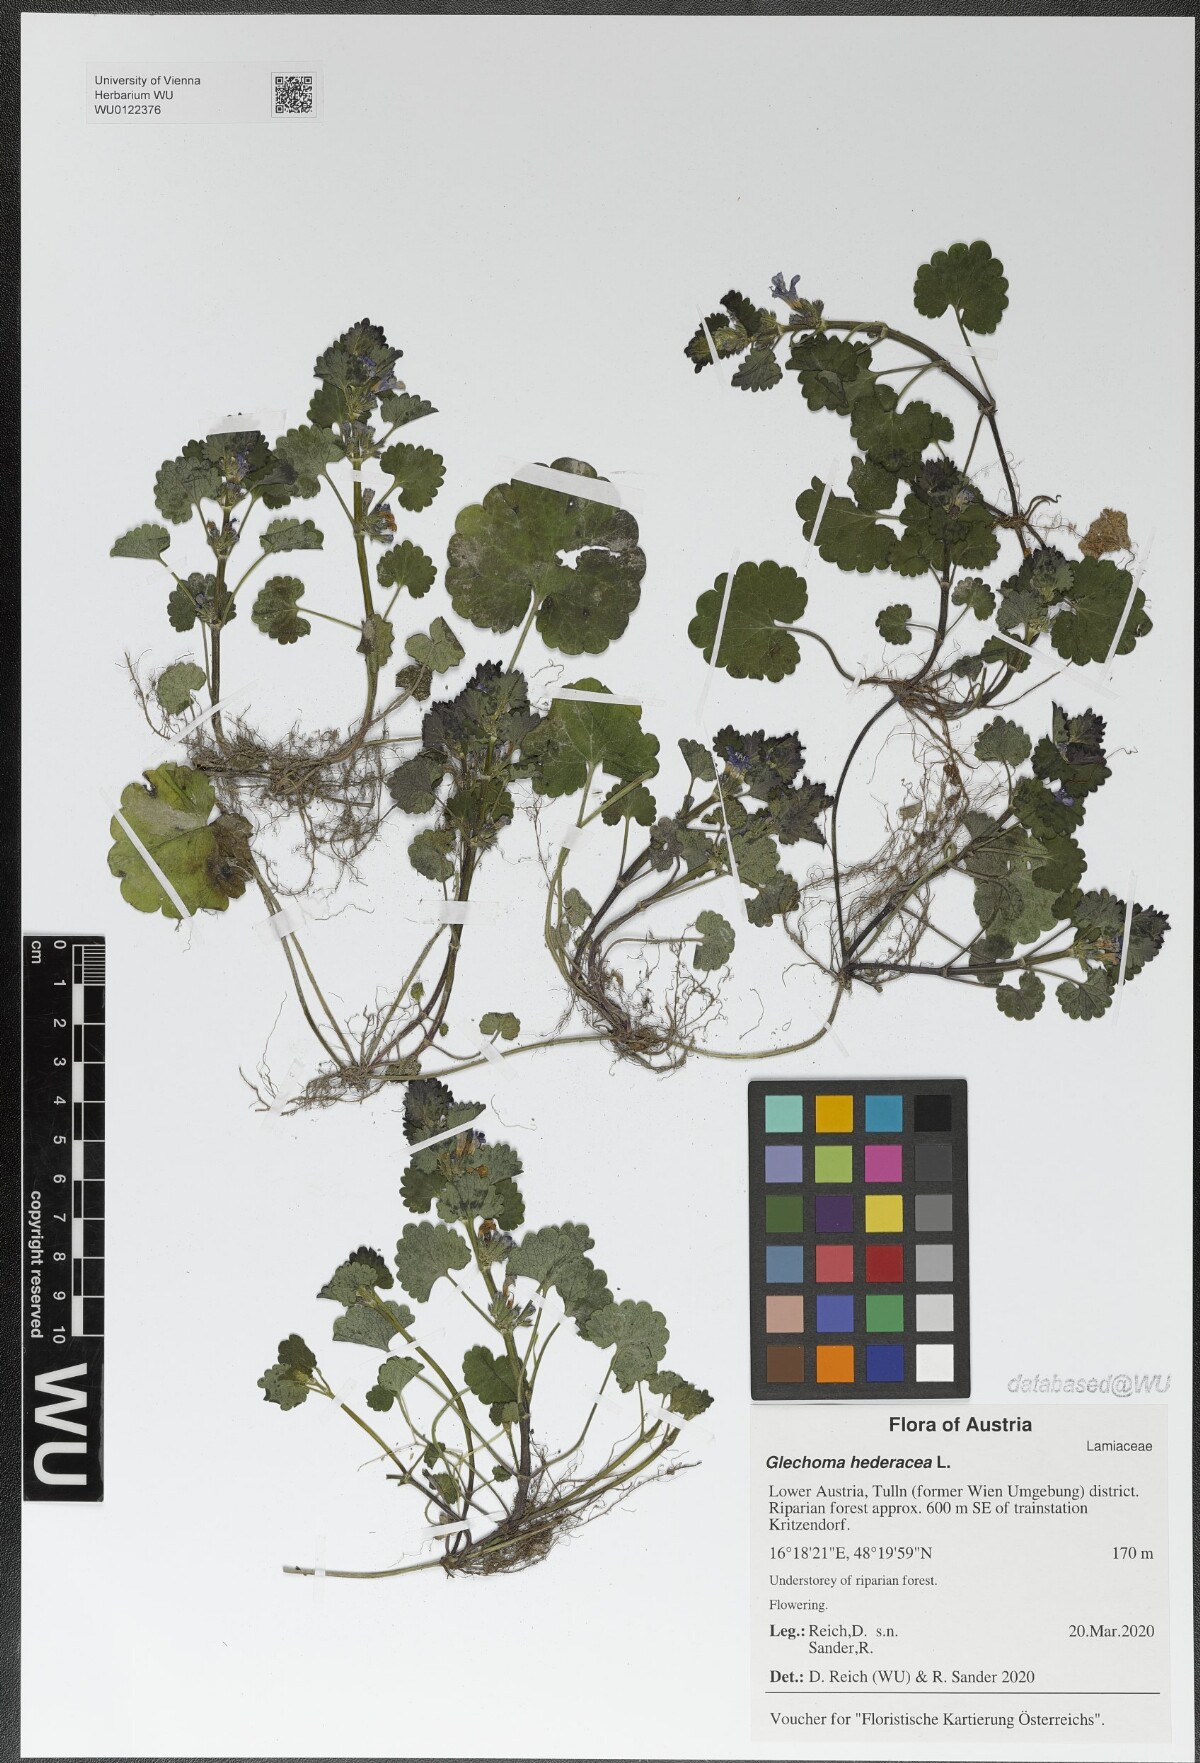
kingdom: Plantae
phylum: Tracheophyta
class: Magnoliopsida
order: Lamiales
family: Lamiaceae
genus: Glechoma
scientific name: Glechoma hederacea
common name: Ground ivy
